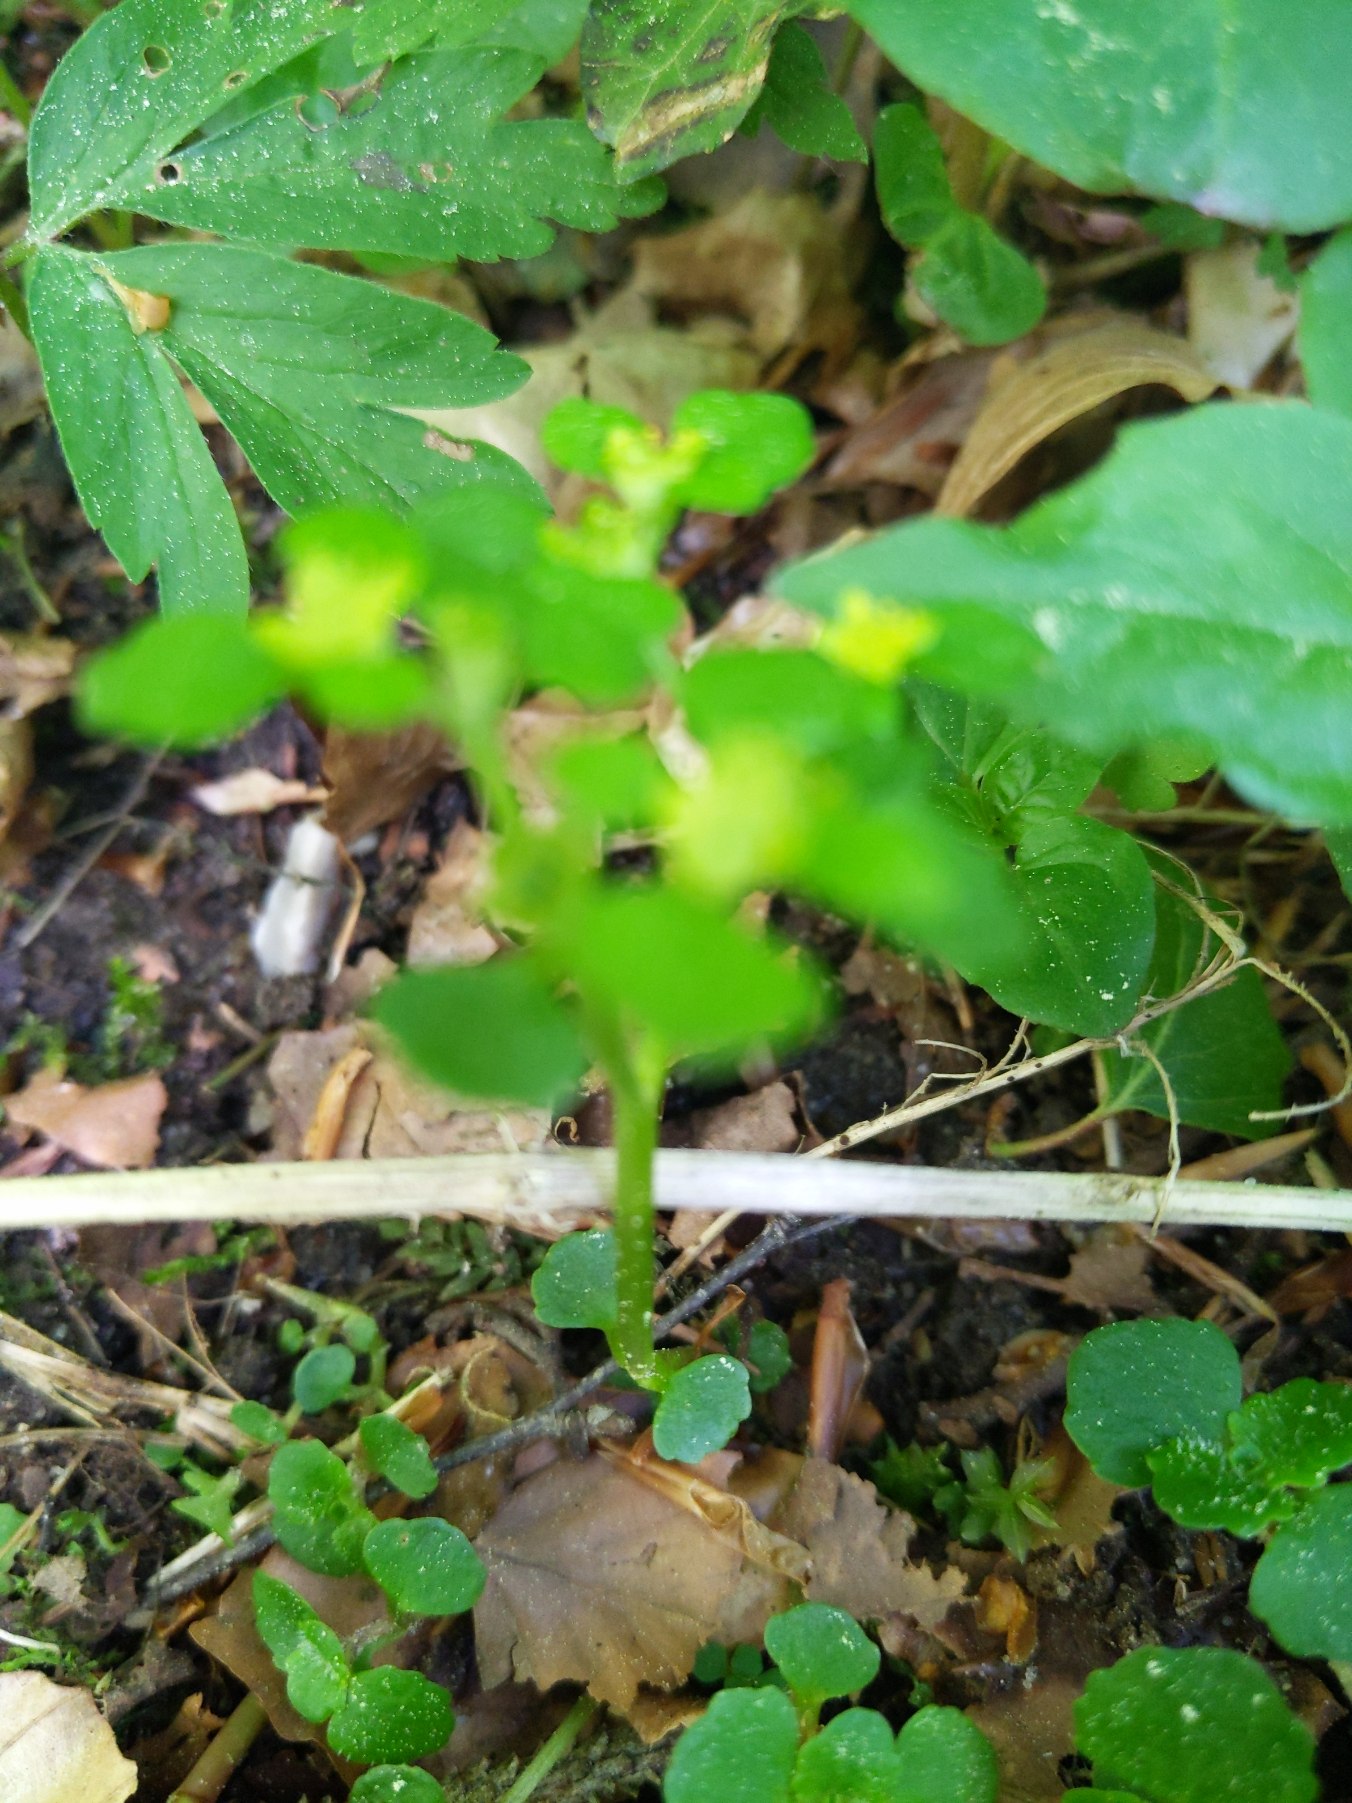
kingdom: Plantae
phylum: Tracheophyta
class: Magnoliopsida
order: Saxifragales
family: Saxifragaceae
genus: Chrysosplenium
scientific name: Chrysosplenium oppositifolium
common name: Småbladet milturt
